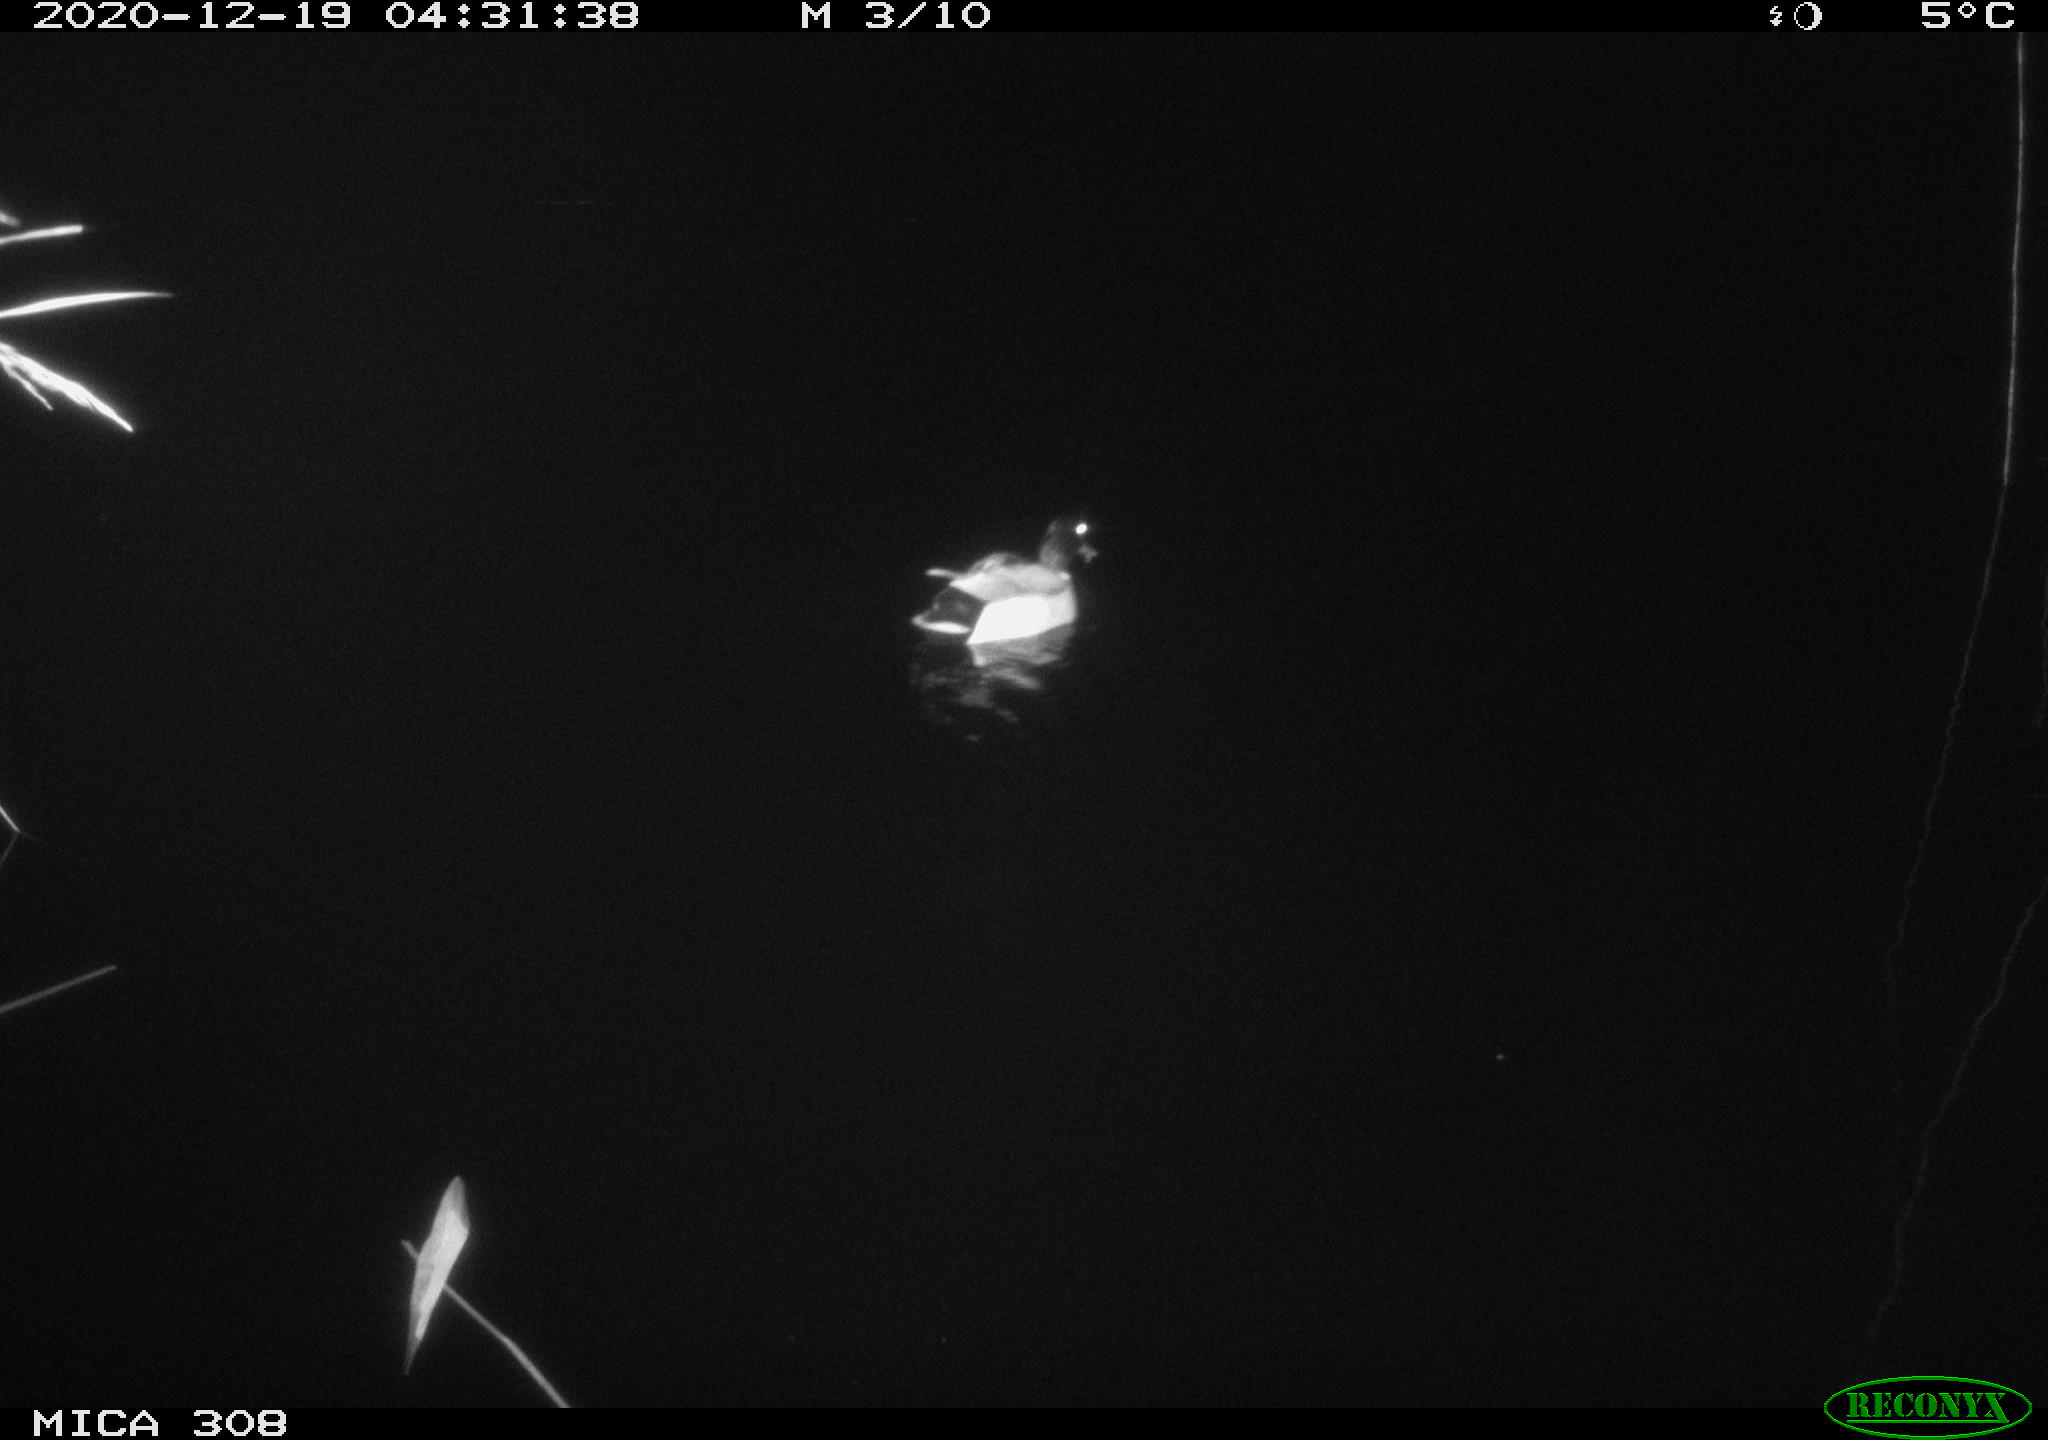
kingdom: Animalia
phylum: Chordata
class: Aves
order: Anseriformes
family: Anatidae
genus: Anas
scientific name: Anas platyrhynchos
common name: Mallard
